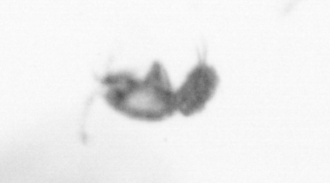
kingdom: Animalia
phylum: Arthropoda
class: Copepoda
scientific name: Copepoda
